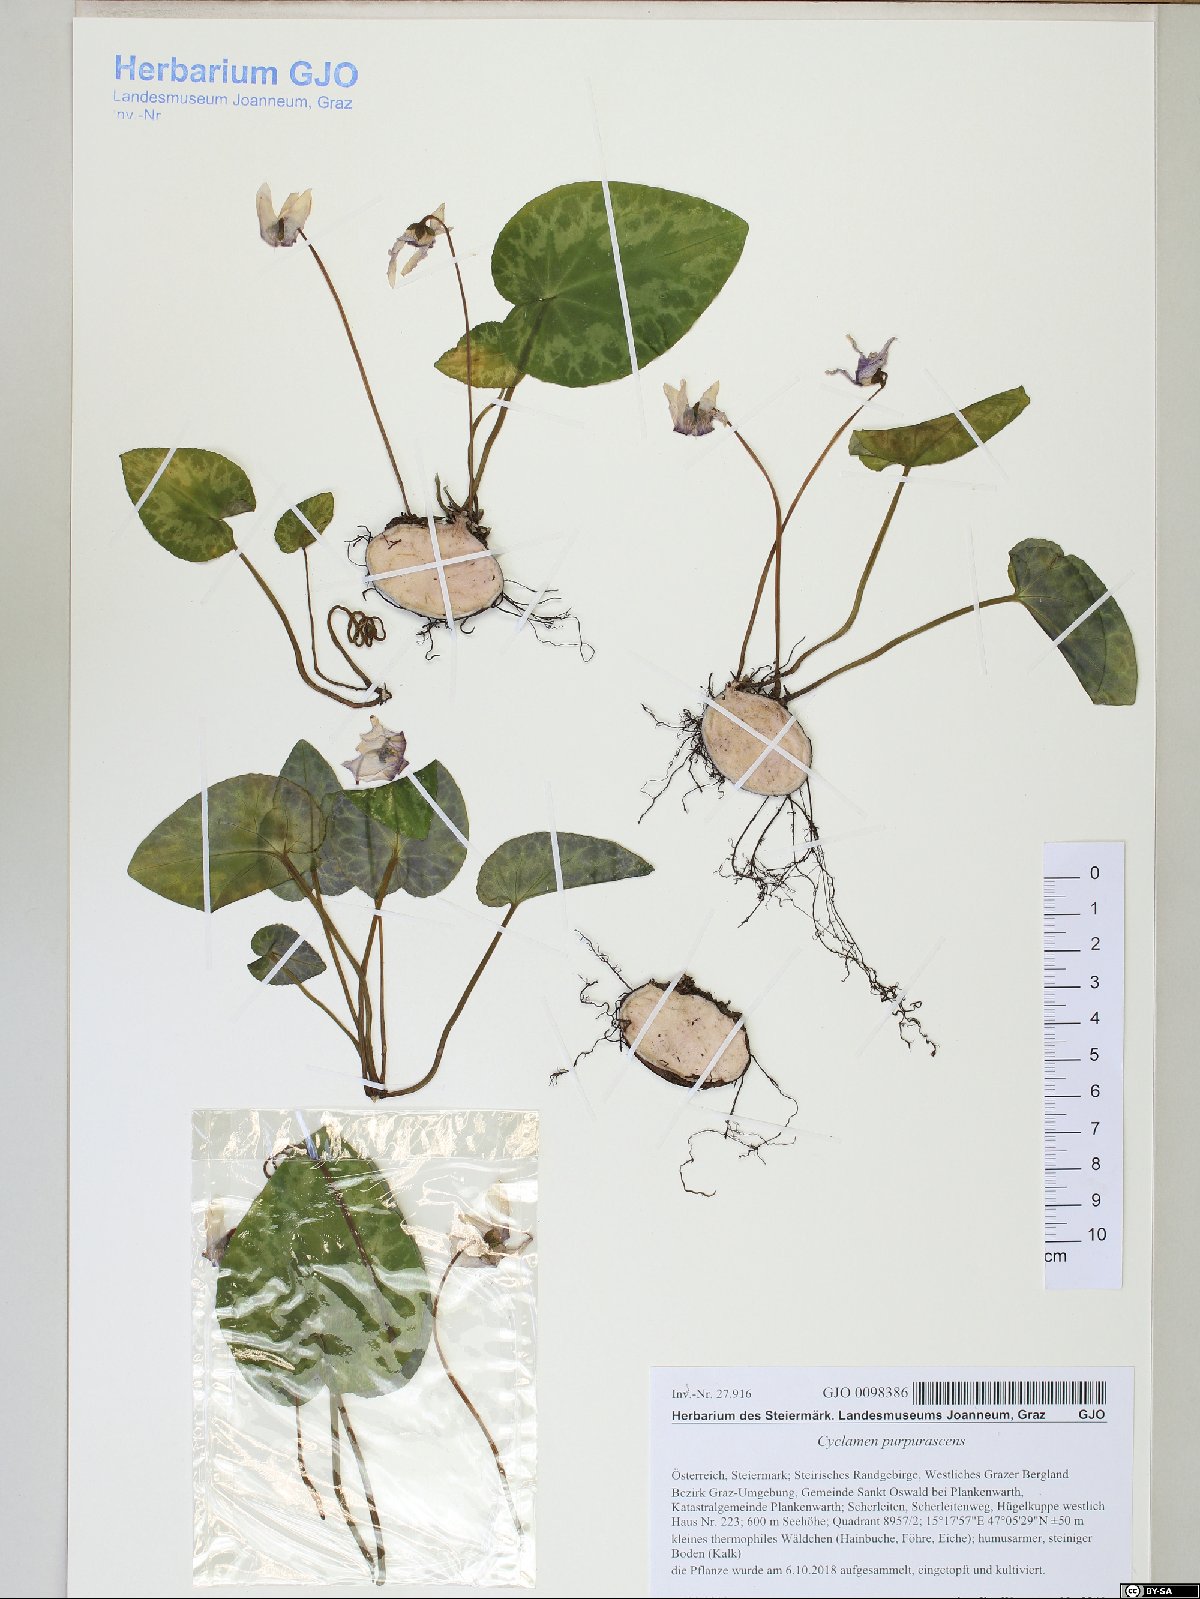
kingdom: Plantae
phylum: Tracheophyta
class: Magnoliopsida
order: Ericales
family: Primulaceae
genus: Cyclamen
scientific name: Cyclamen purpurascens
